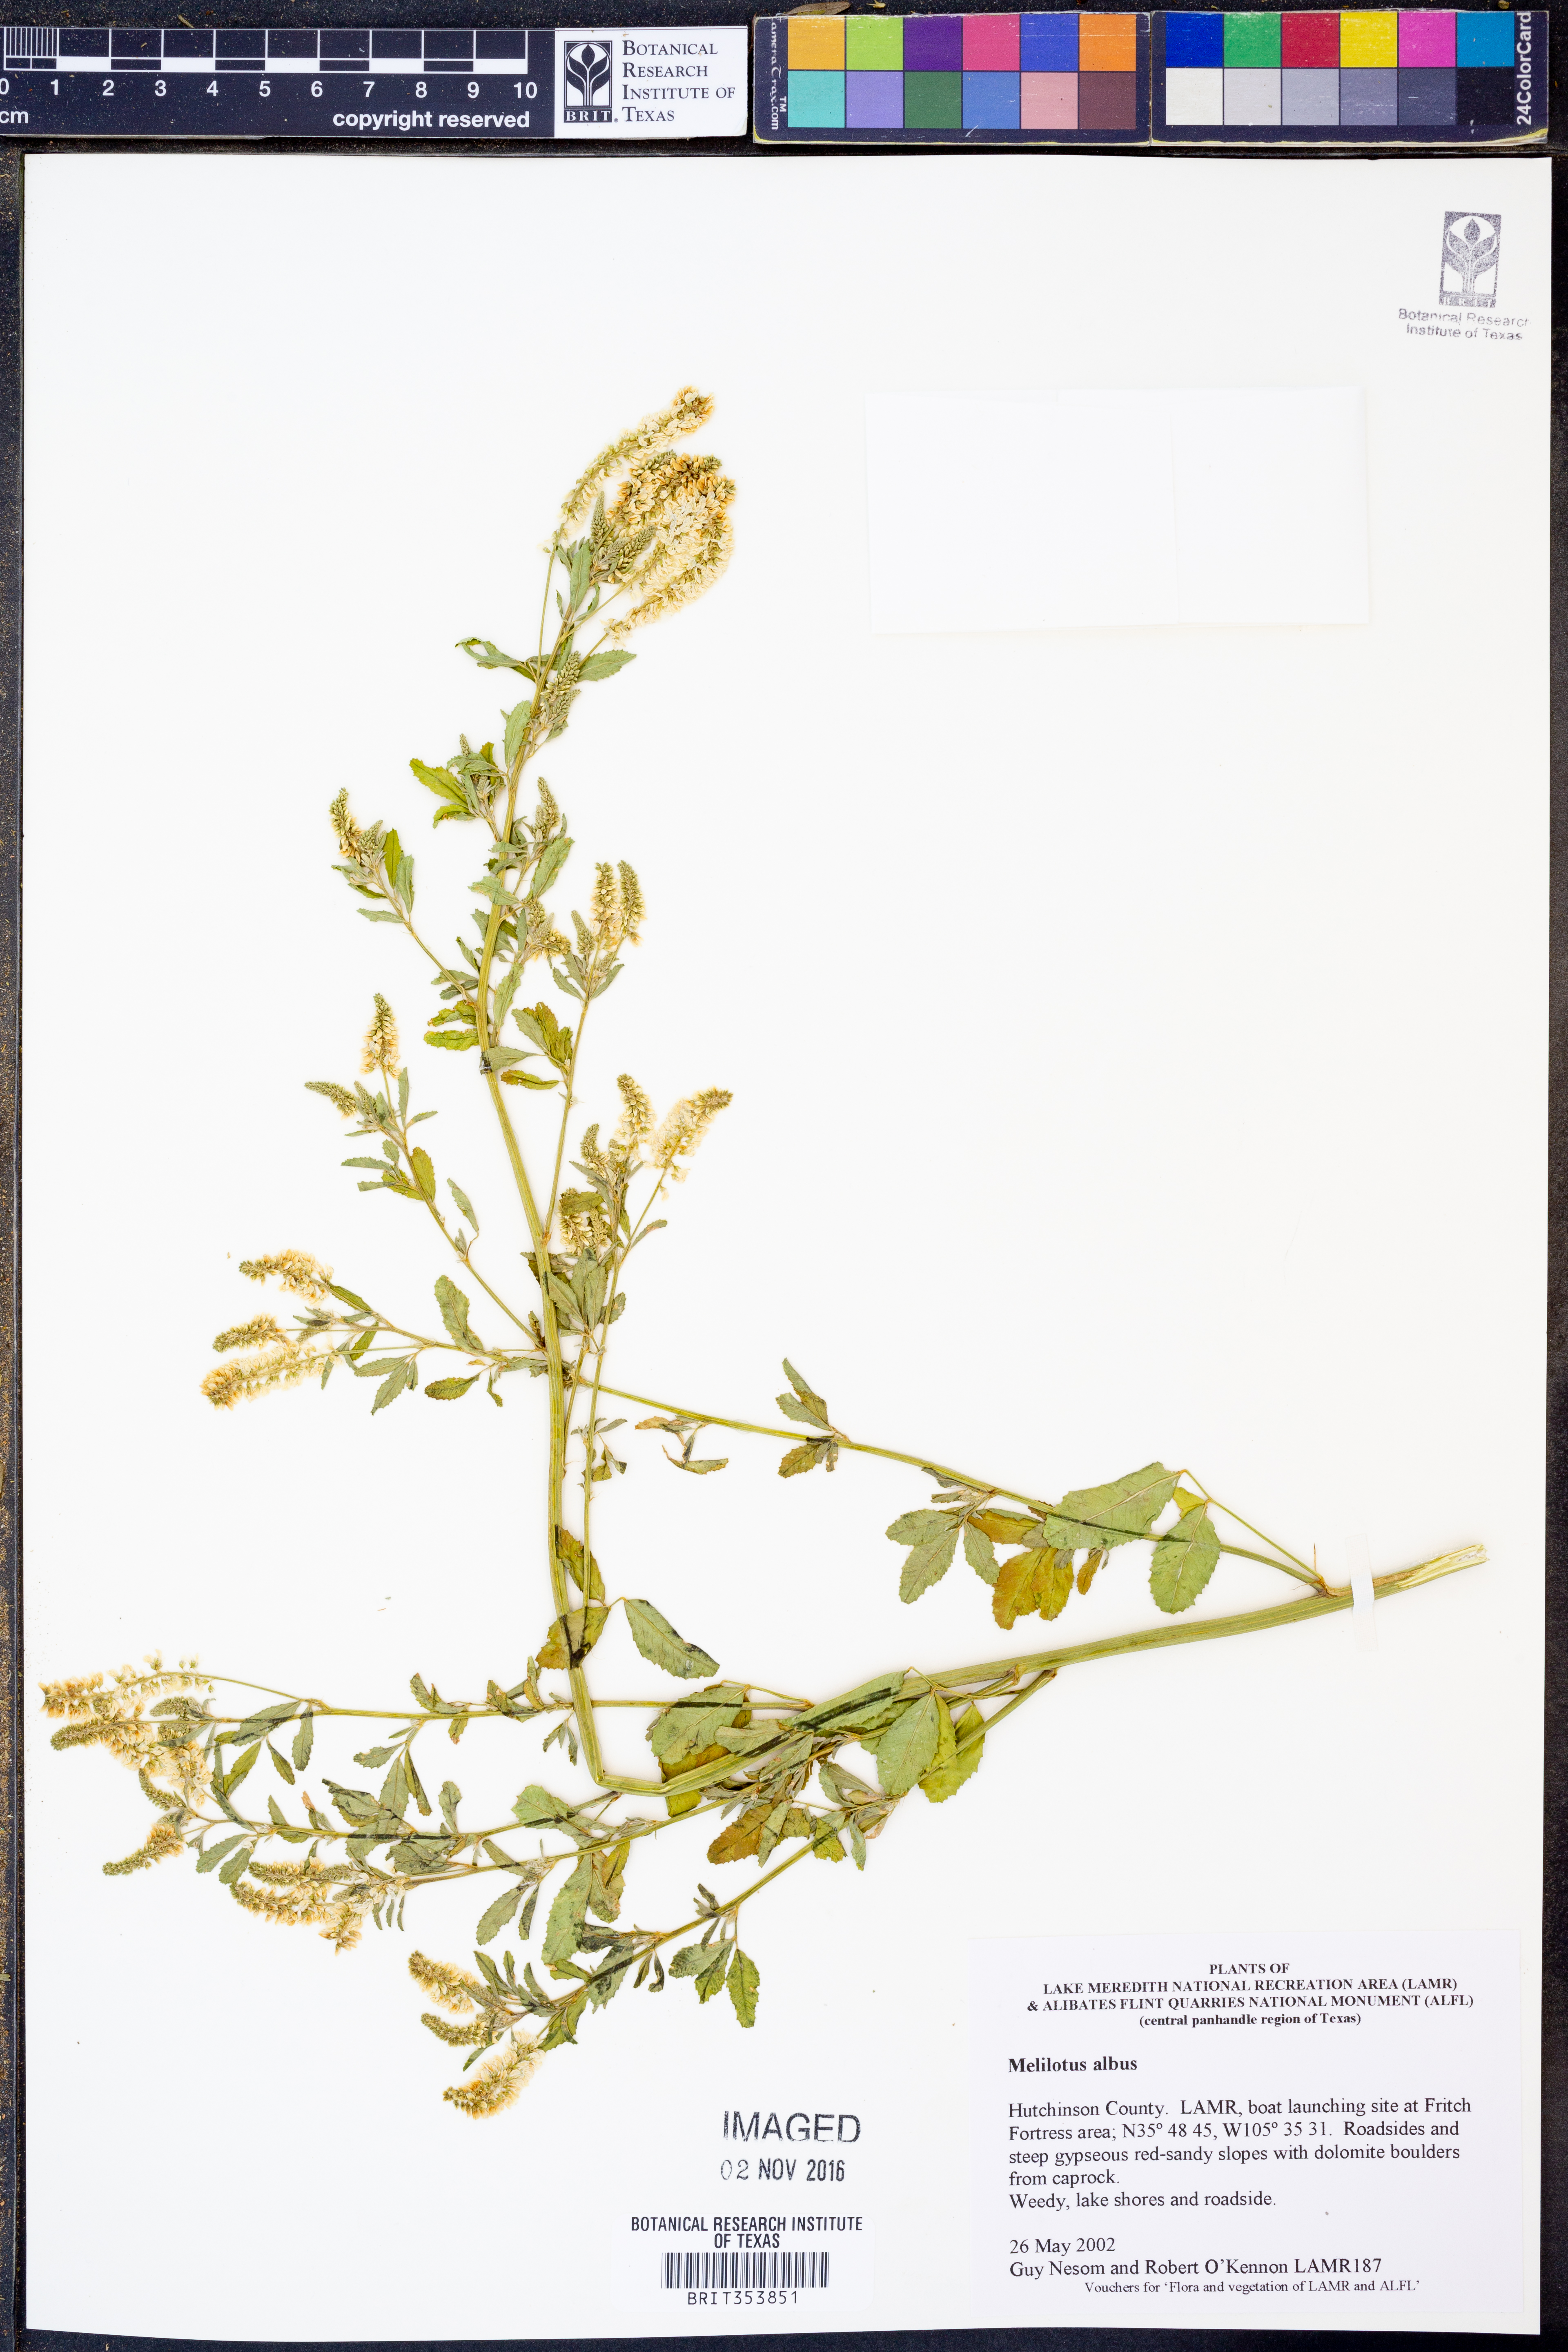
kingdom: Plantae
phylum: Tracheophyta
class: Magnoliopsida
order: Fabales
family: Fabaceae
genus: Melilotus
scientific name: Melilotus albus
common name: White melilot
